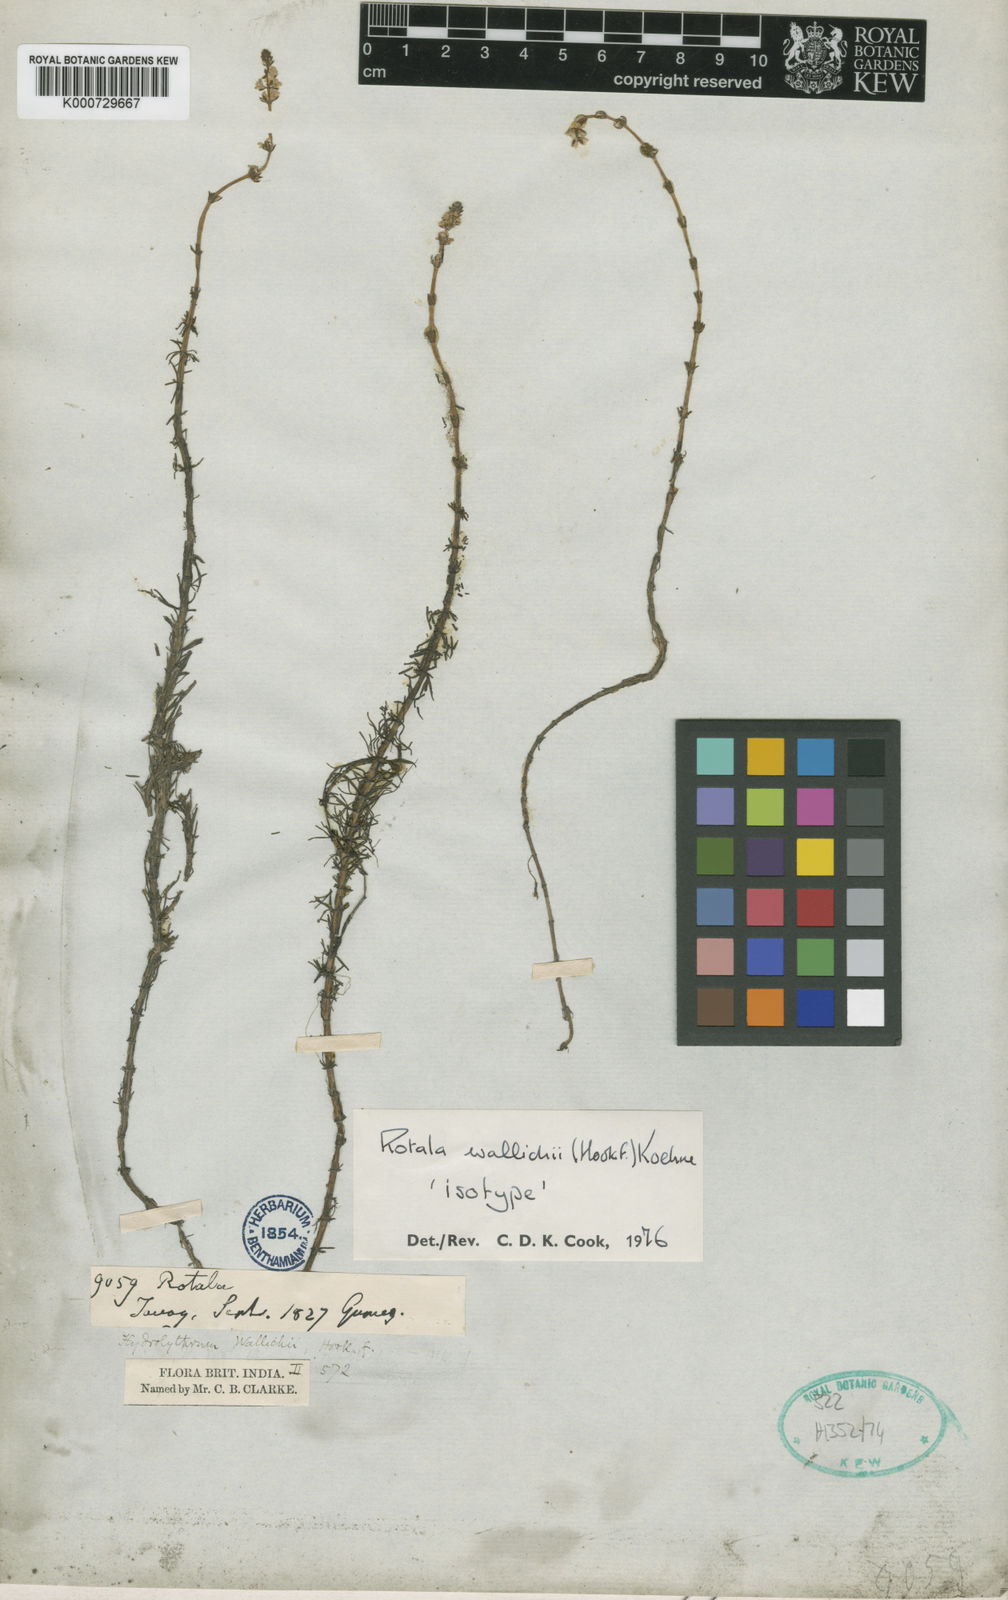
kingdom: Plantae
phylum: Tracheophyta
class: Magnoliopsida
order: Myrtales
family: Lythraceae
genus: Rotala
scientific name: Rotala wallichii
